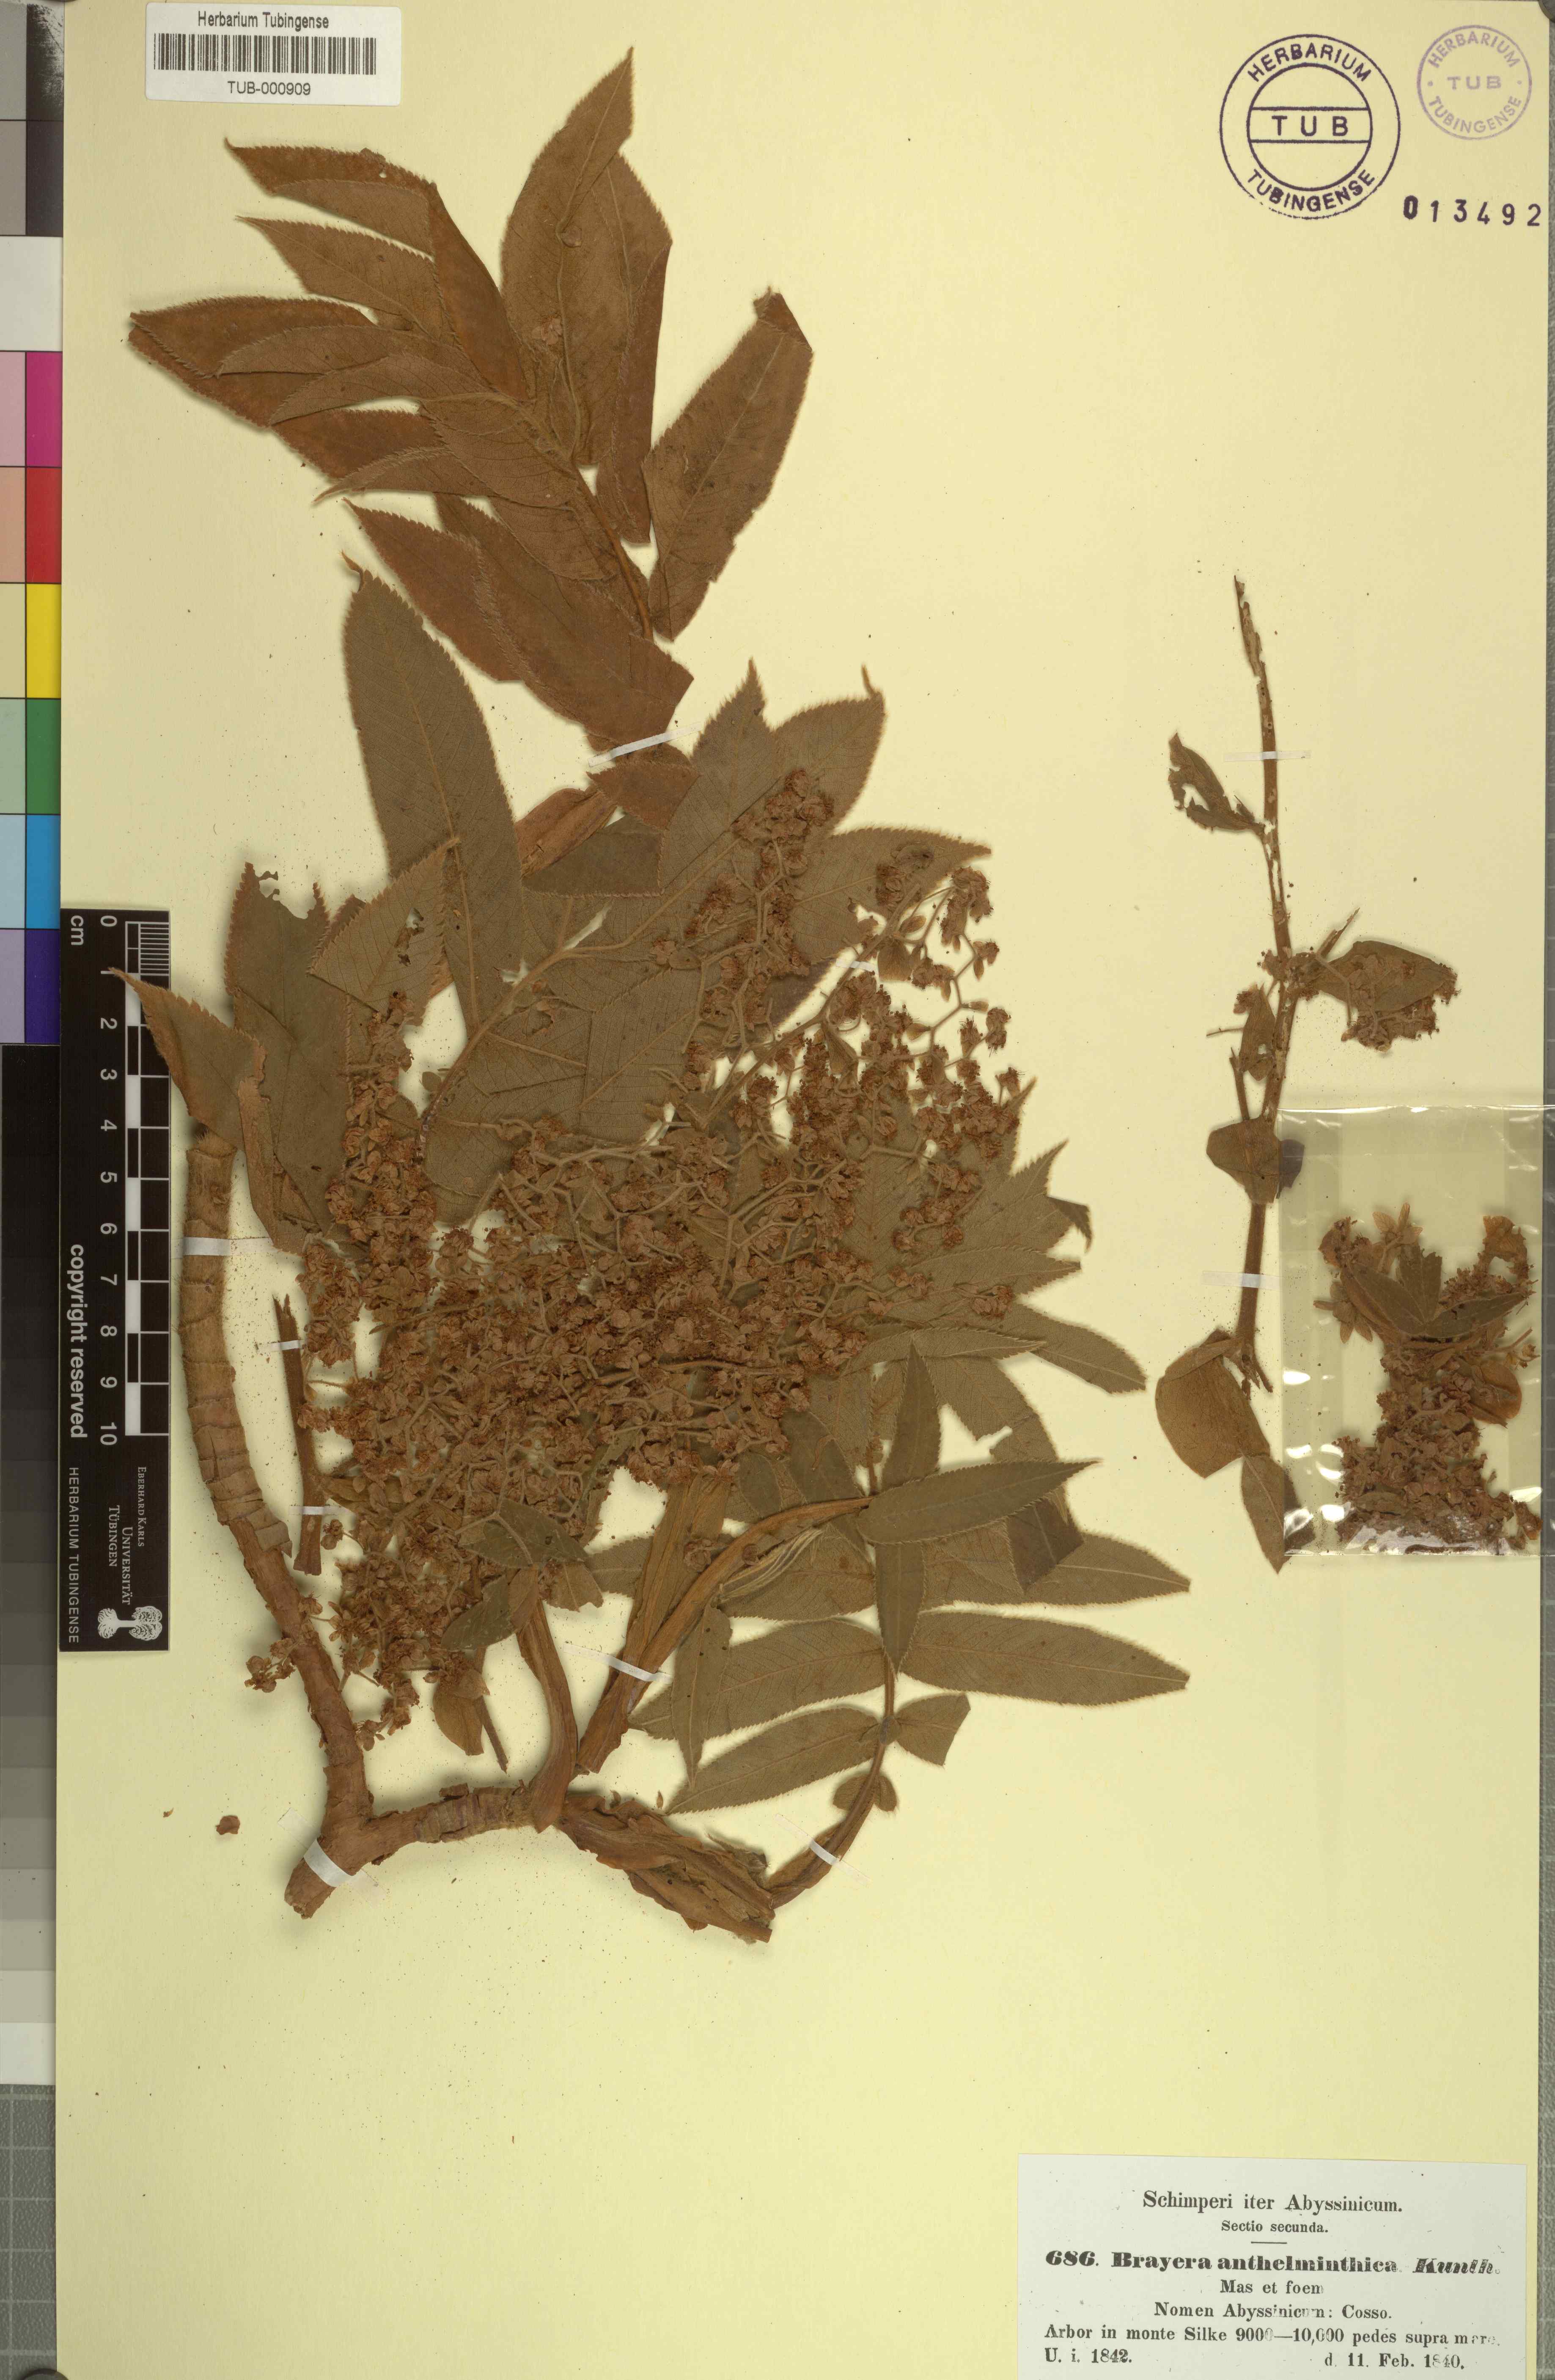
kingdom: Plantae
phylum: Tracheophyta
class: Magnoliopsida
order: Rosales
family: Rosaceae
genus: Hagenia
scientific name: Hagenia abyssinica
